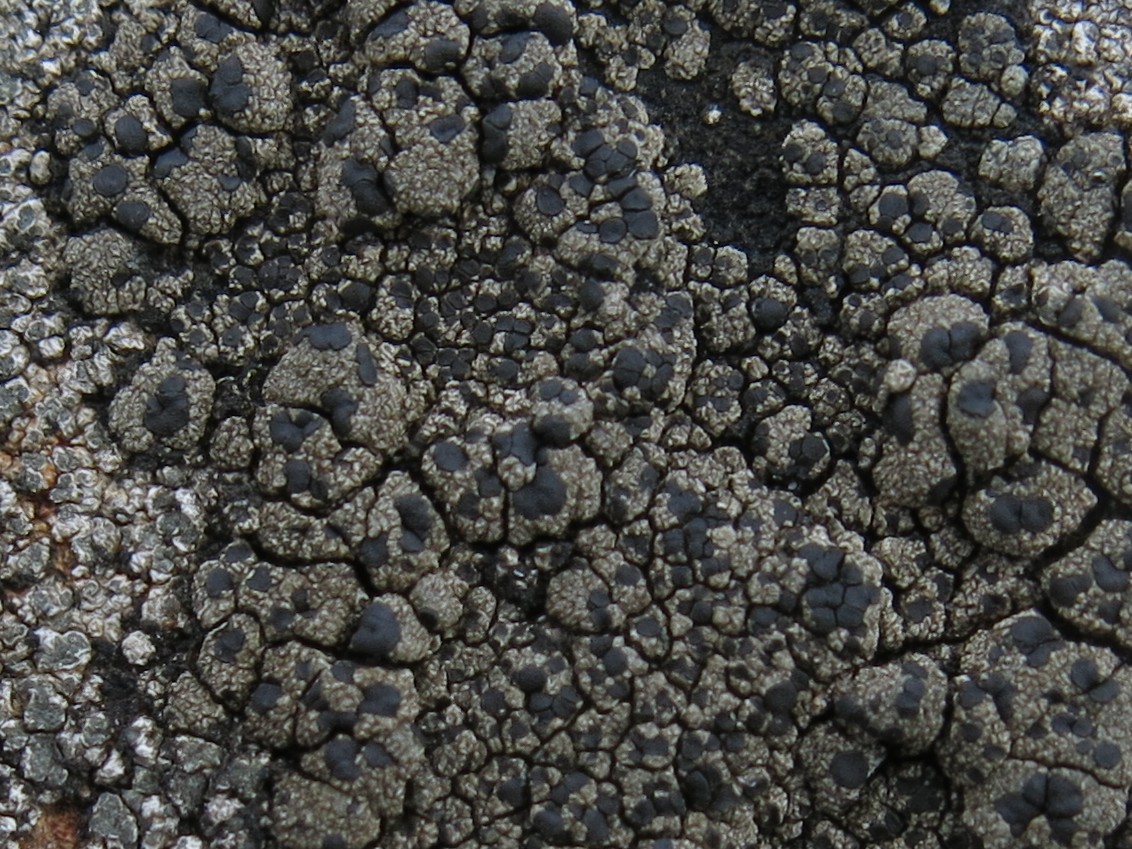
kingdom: Fungi
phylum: Ascomycota
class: Lecanoromycetes
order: Lecanorales
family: Parmeliaceae
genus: Lichen
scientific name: Lichen
